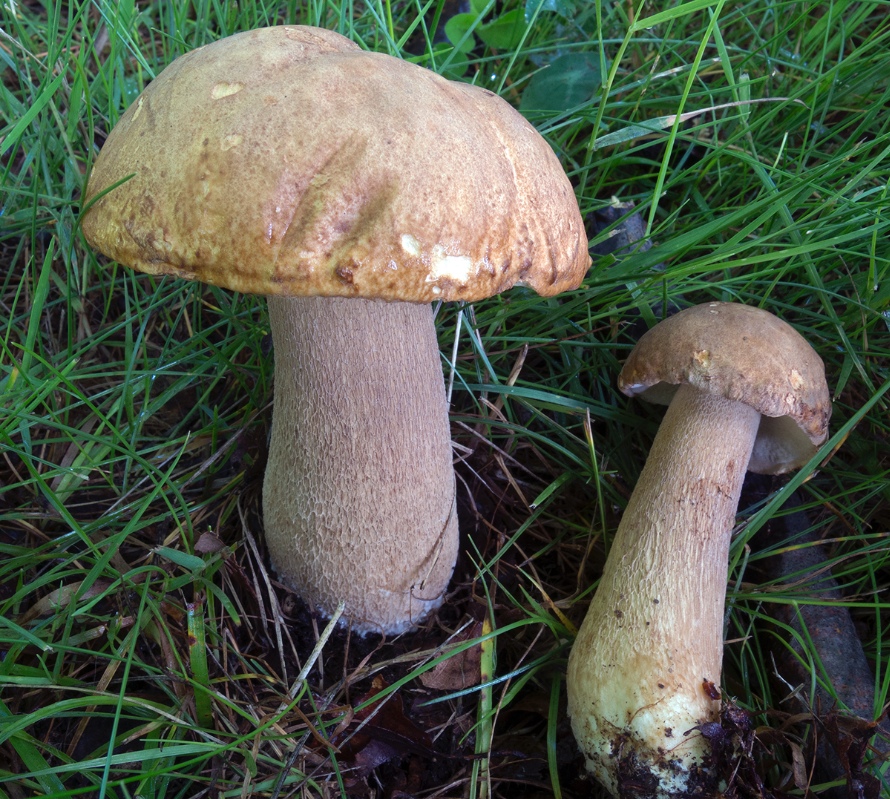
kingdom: Fungi
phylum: Basidiomycota
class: Agaricomycetes
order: Boletales
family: Boletaceae
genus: Boletus
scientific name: Boletus reticulatus
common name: sommer-rørhat
